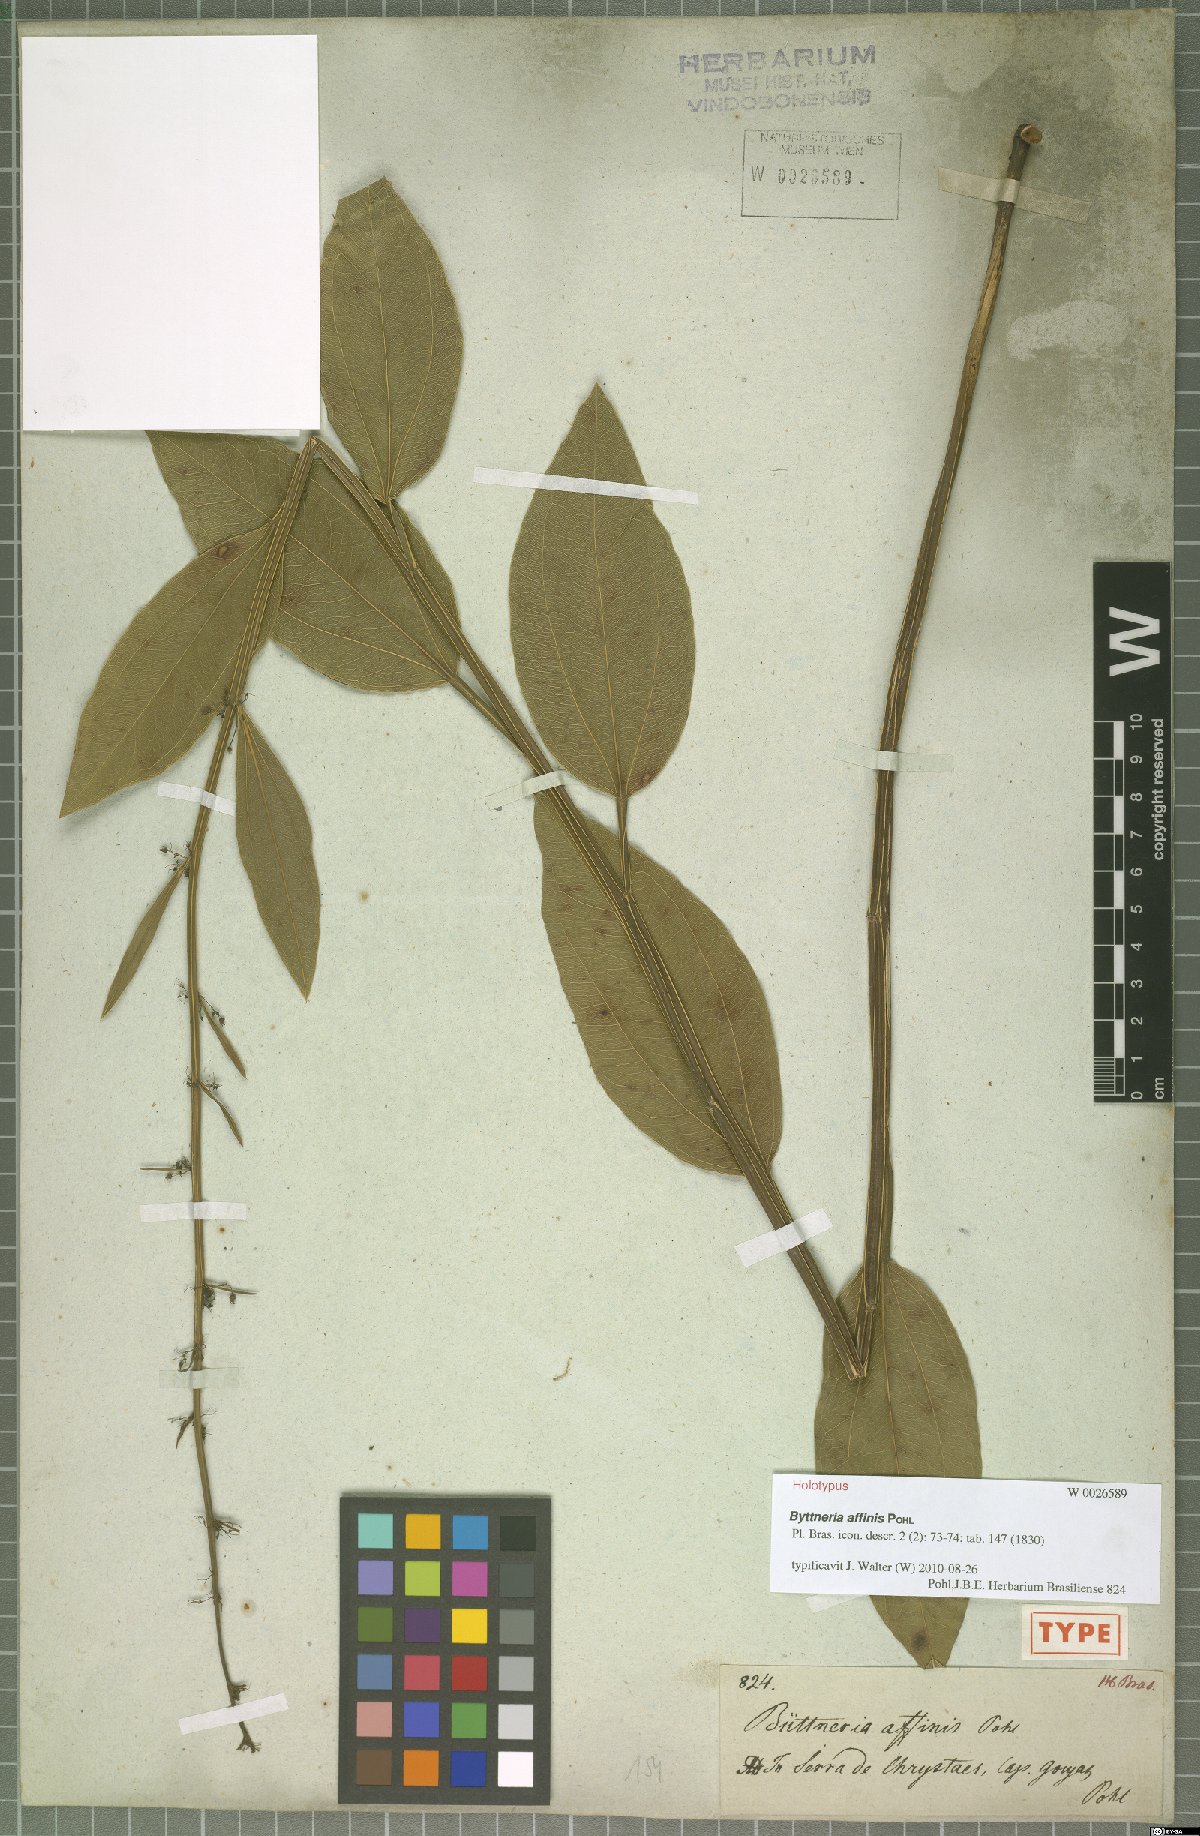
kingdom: Plantae
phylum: Tracheophyta
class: Magnoliopsida
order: Malvales
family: Malvaceae
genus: Byttneria
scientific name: Byttneria affinis
